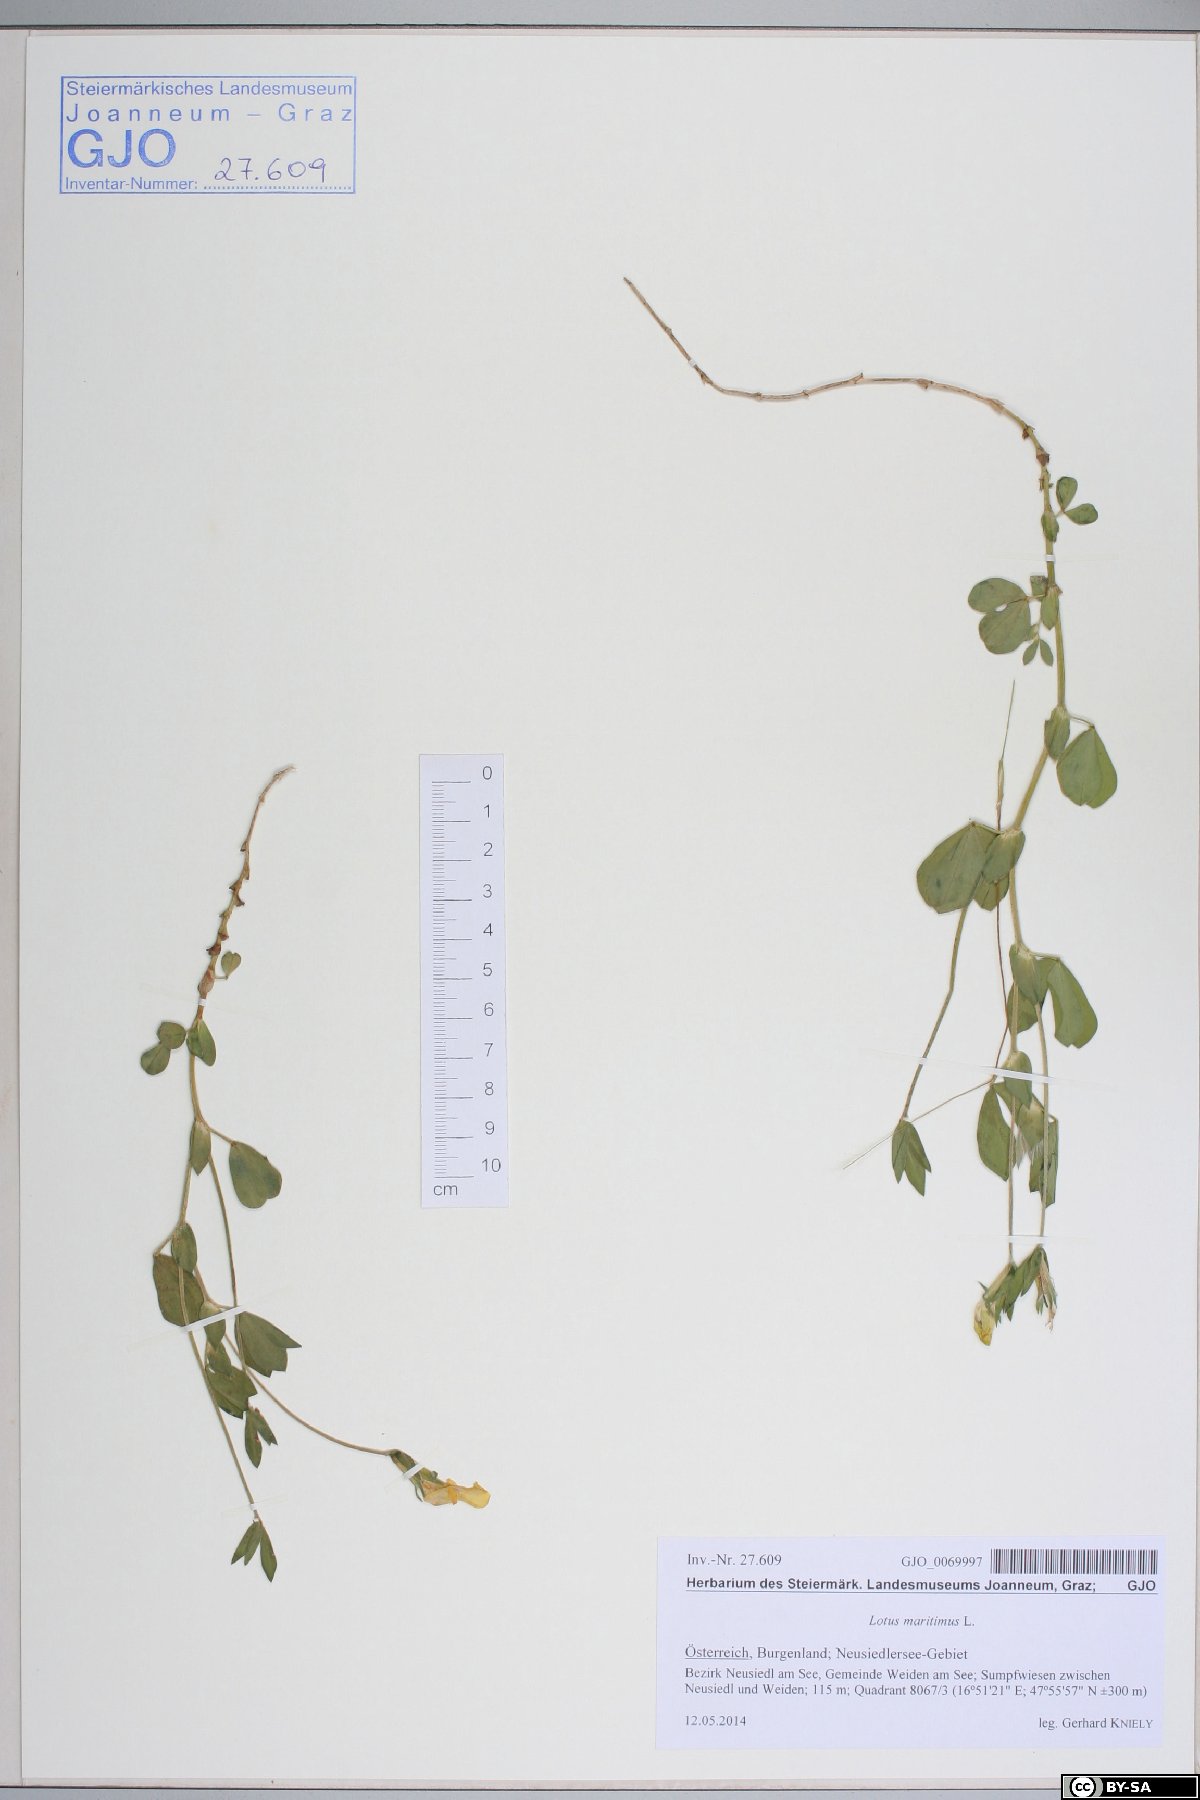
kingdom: Plantae
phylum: Tracheophyta
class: Magnoliopsida
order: Fabales
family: Fabaceae
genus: Lotus
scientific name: Lotus maritimus
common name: Dragon's-teeth
